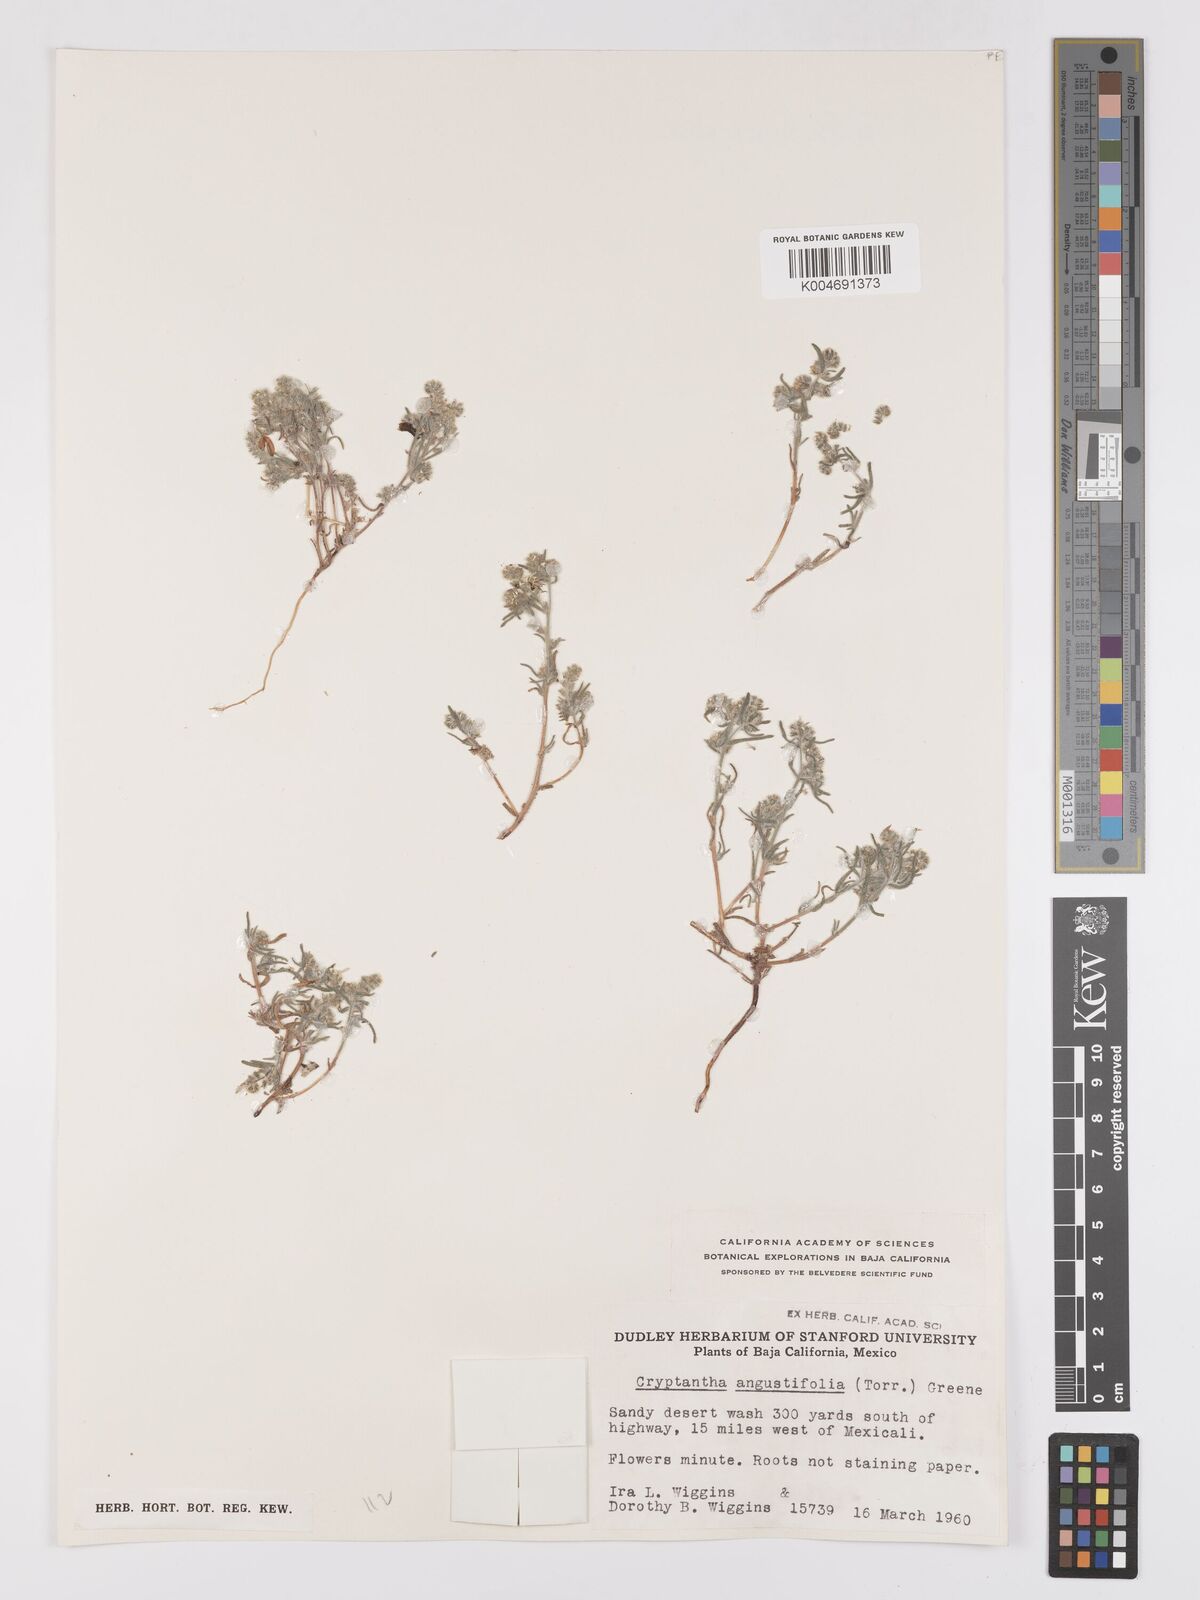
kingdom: Plantae
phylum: Tracheophyta
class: Magnoliopsida
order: Boraginales
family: Boraginaceae
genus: Johnstonella
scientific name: Johnstonella angustifolia
